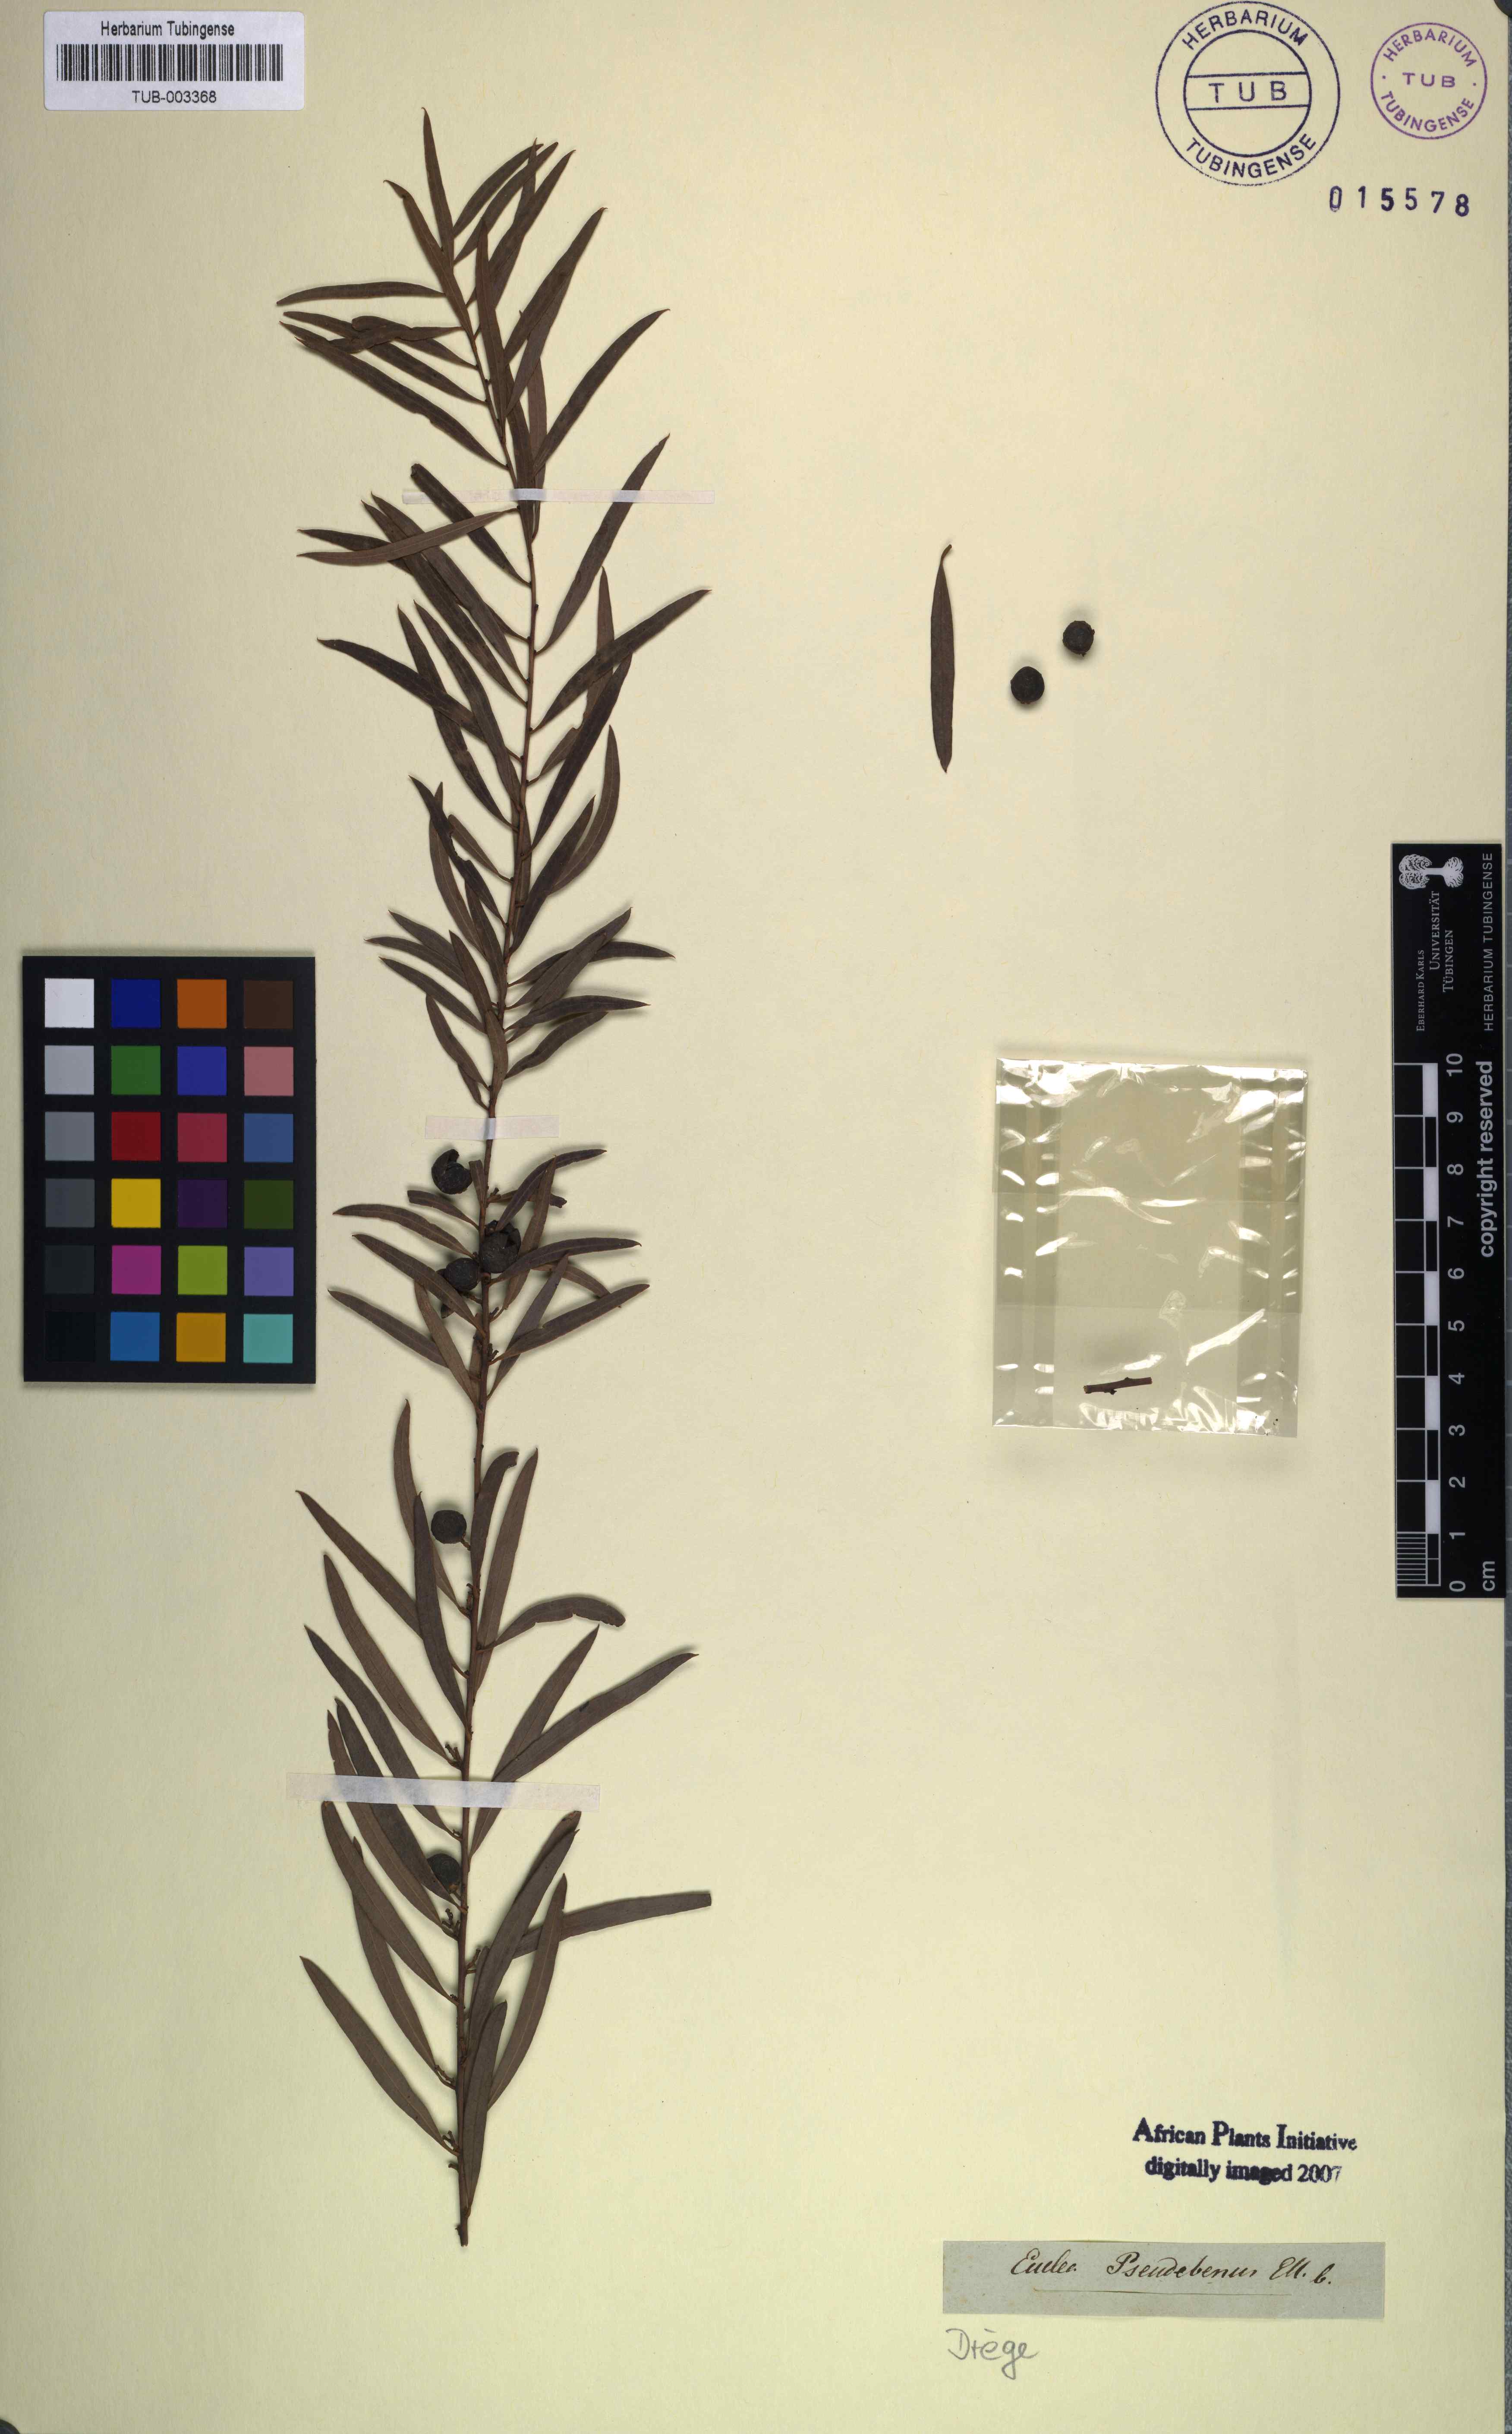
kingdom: Plantae
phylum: Tracheophyta
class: Magnoliopsida
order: Ericales
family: Ebenaceae
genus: Euclea
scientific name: Euclea pseudebenus
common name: Black ebony
